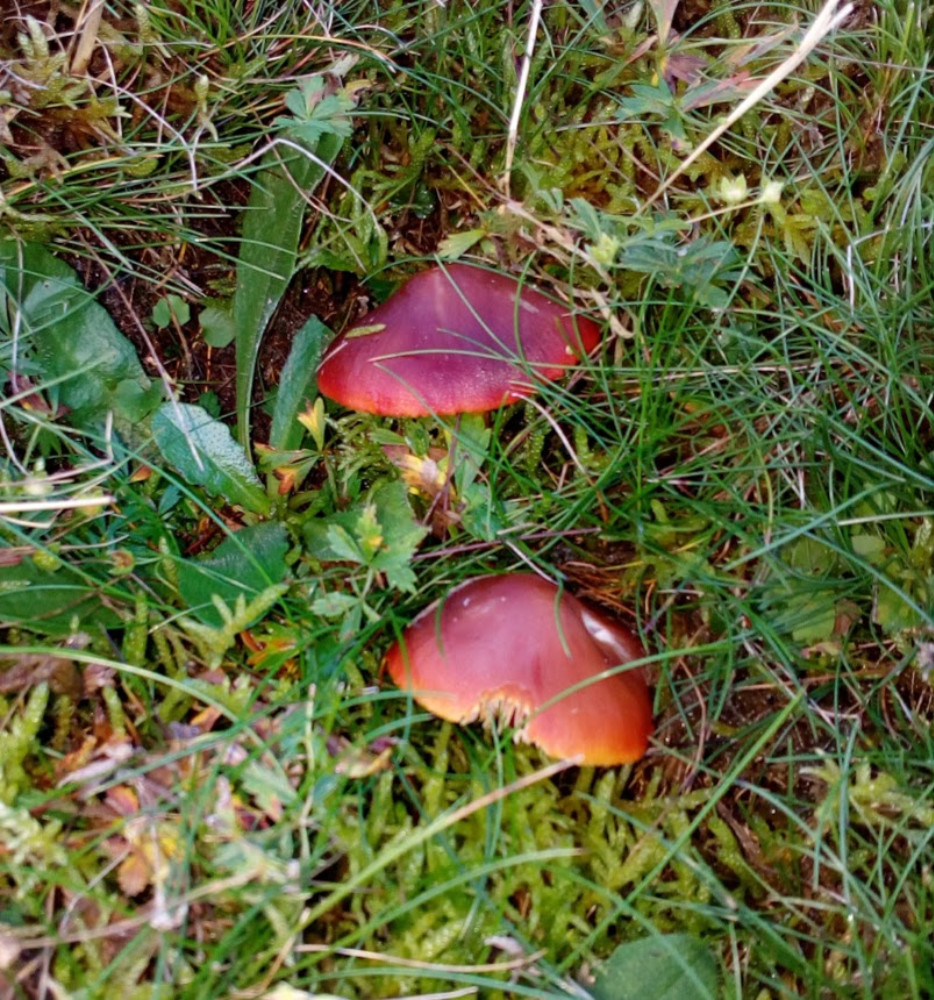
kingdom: Fungi
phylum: Basidiomycota
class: Agaricomycetes
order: Agaricales
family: Hygrophoraceae
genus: Hygrocybe
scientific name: Hygrocybe punicea
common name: skarlagen-vokshat
